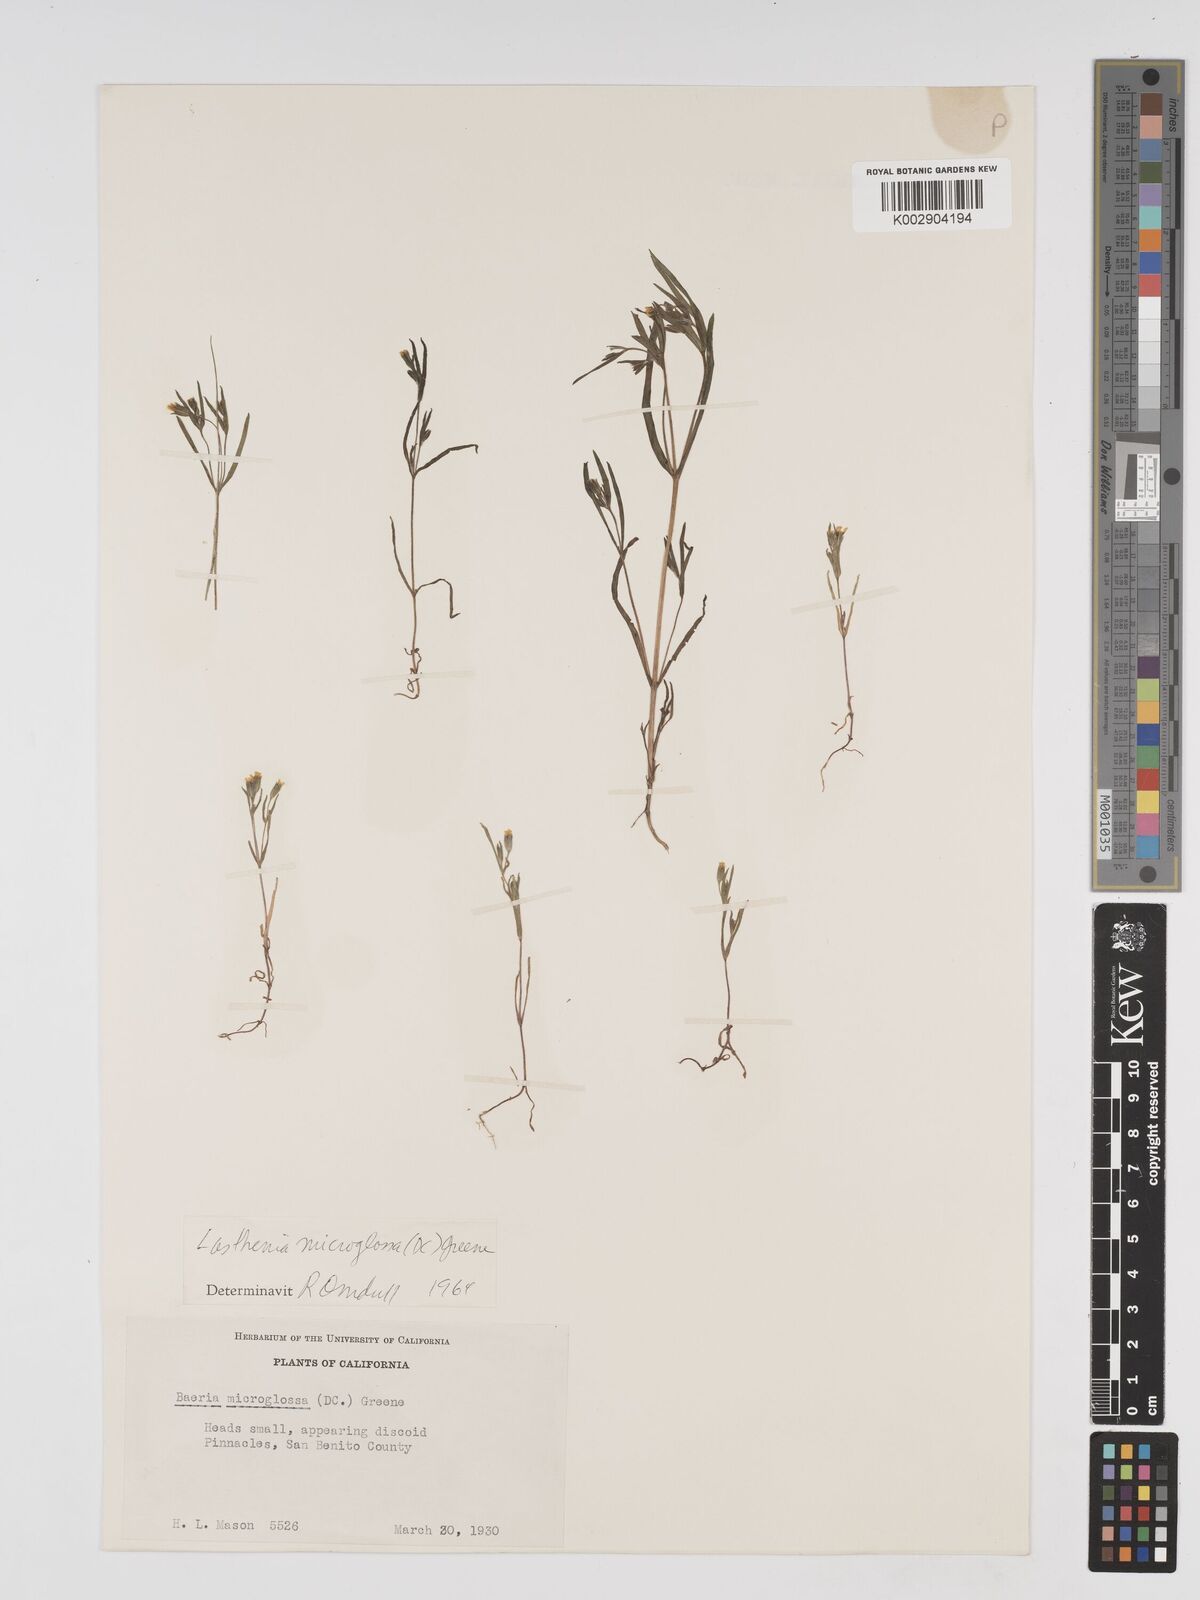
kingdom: Plantae
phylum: Tracheophyta
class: Magnoliopsida
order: Asterales
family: Asteraceae
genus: Lasthenia
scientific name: Lasthenia microglossa
